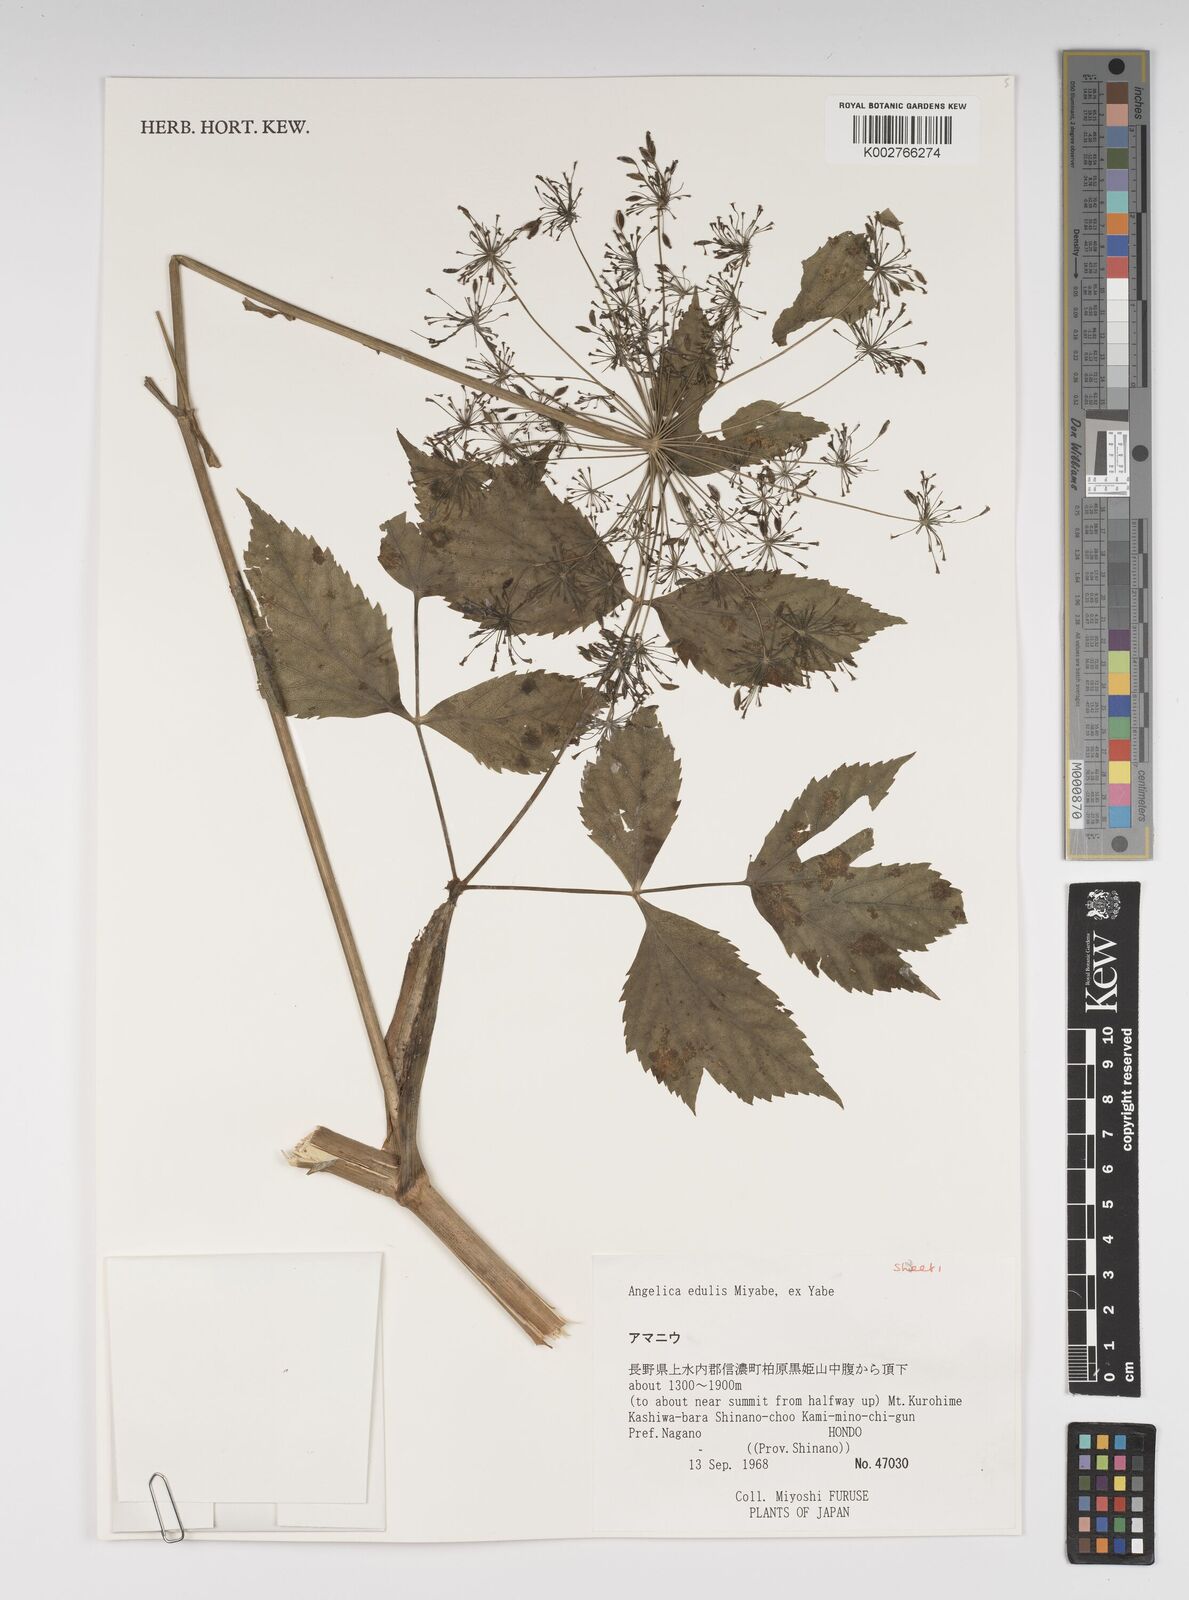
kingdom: Plantae
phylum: Tracheophyta
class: Magnoliopsida
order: Apiales
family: Apiaceae
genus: Angelica
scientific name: Angelica edulis
